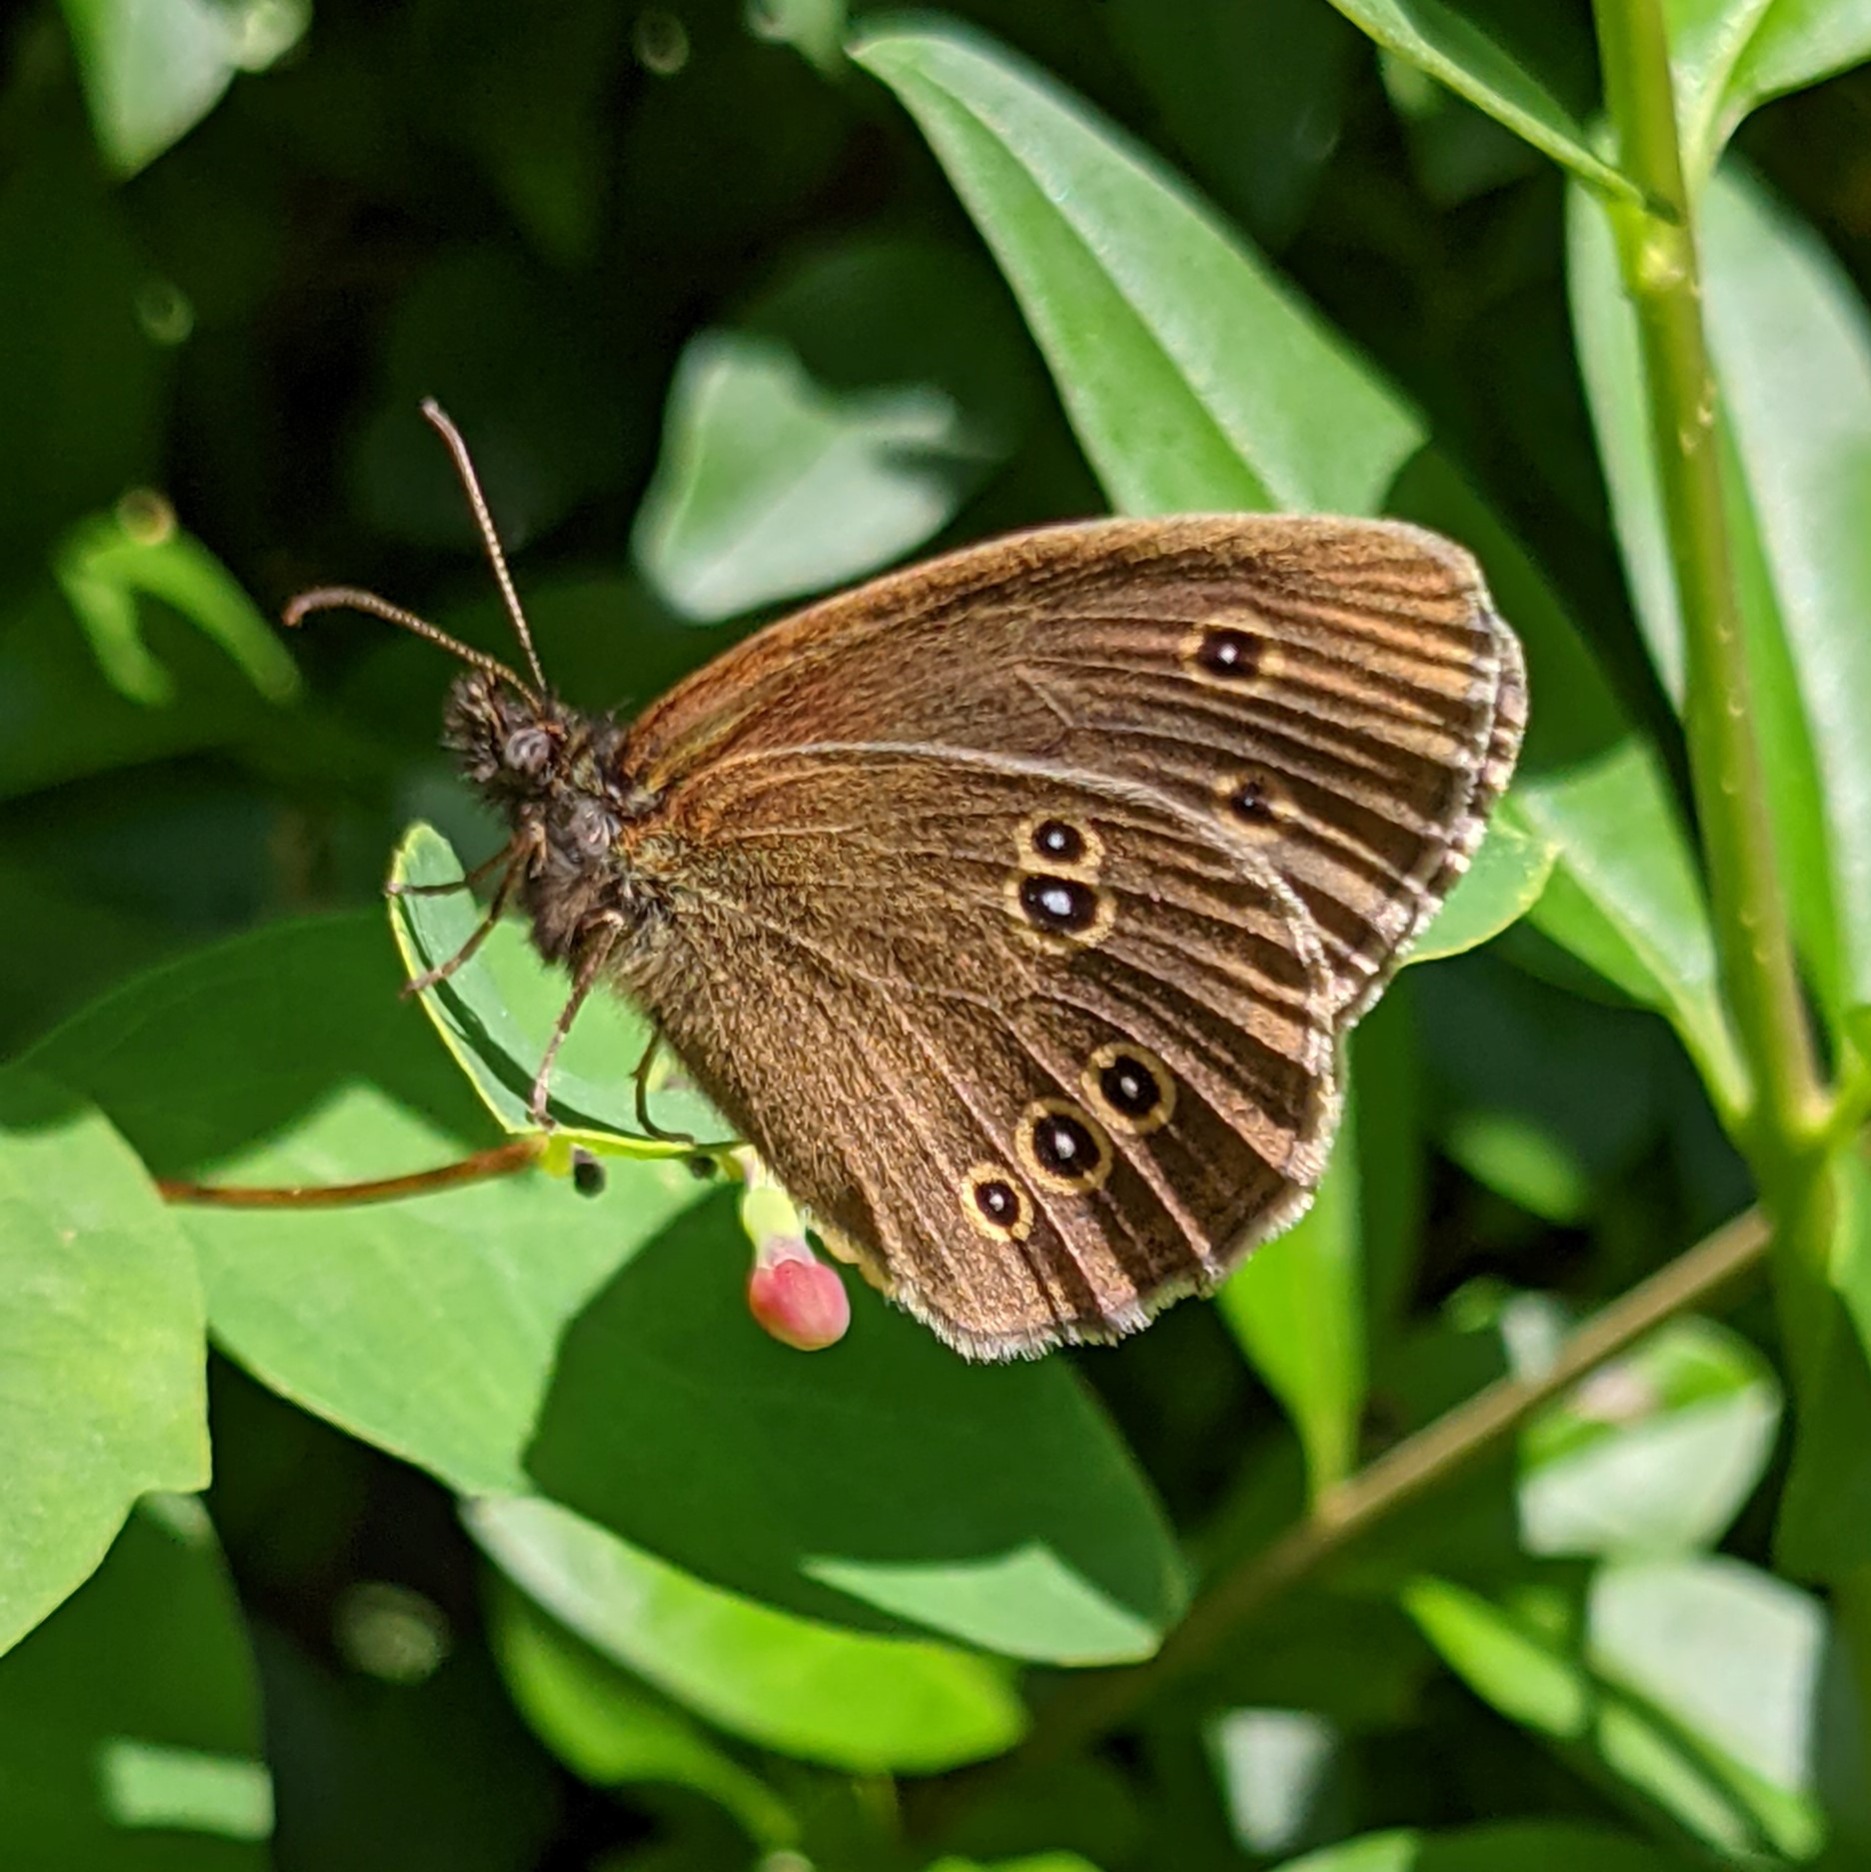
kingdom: Animalia
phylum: Arthropoda
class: Insecta
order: Lepidoptera
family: Nymphalidae
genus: Aphantopus
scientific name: Aphantopus hyperantus
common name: Engrandøje
